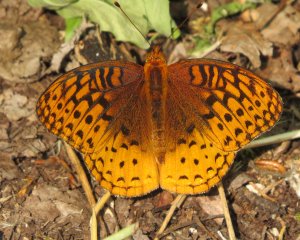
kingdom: Animalia
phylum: Arthropoda
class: Insecta
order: Lepidoptera
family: Nymphalidae
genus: Speyeria
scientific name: Speyeria cybele
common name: Great Spangled Fritillary
